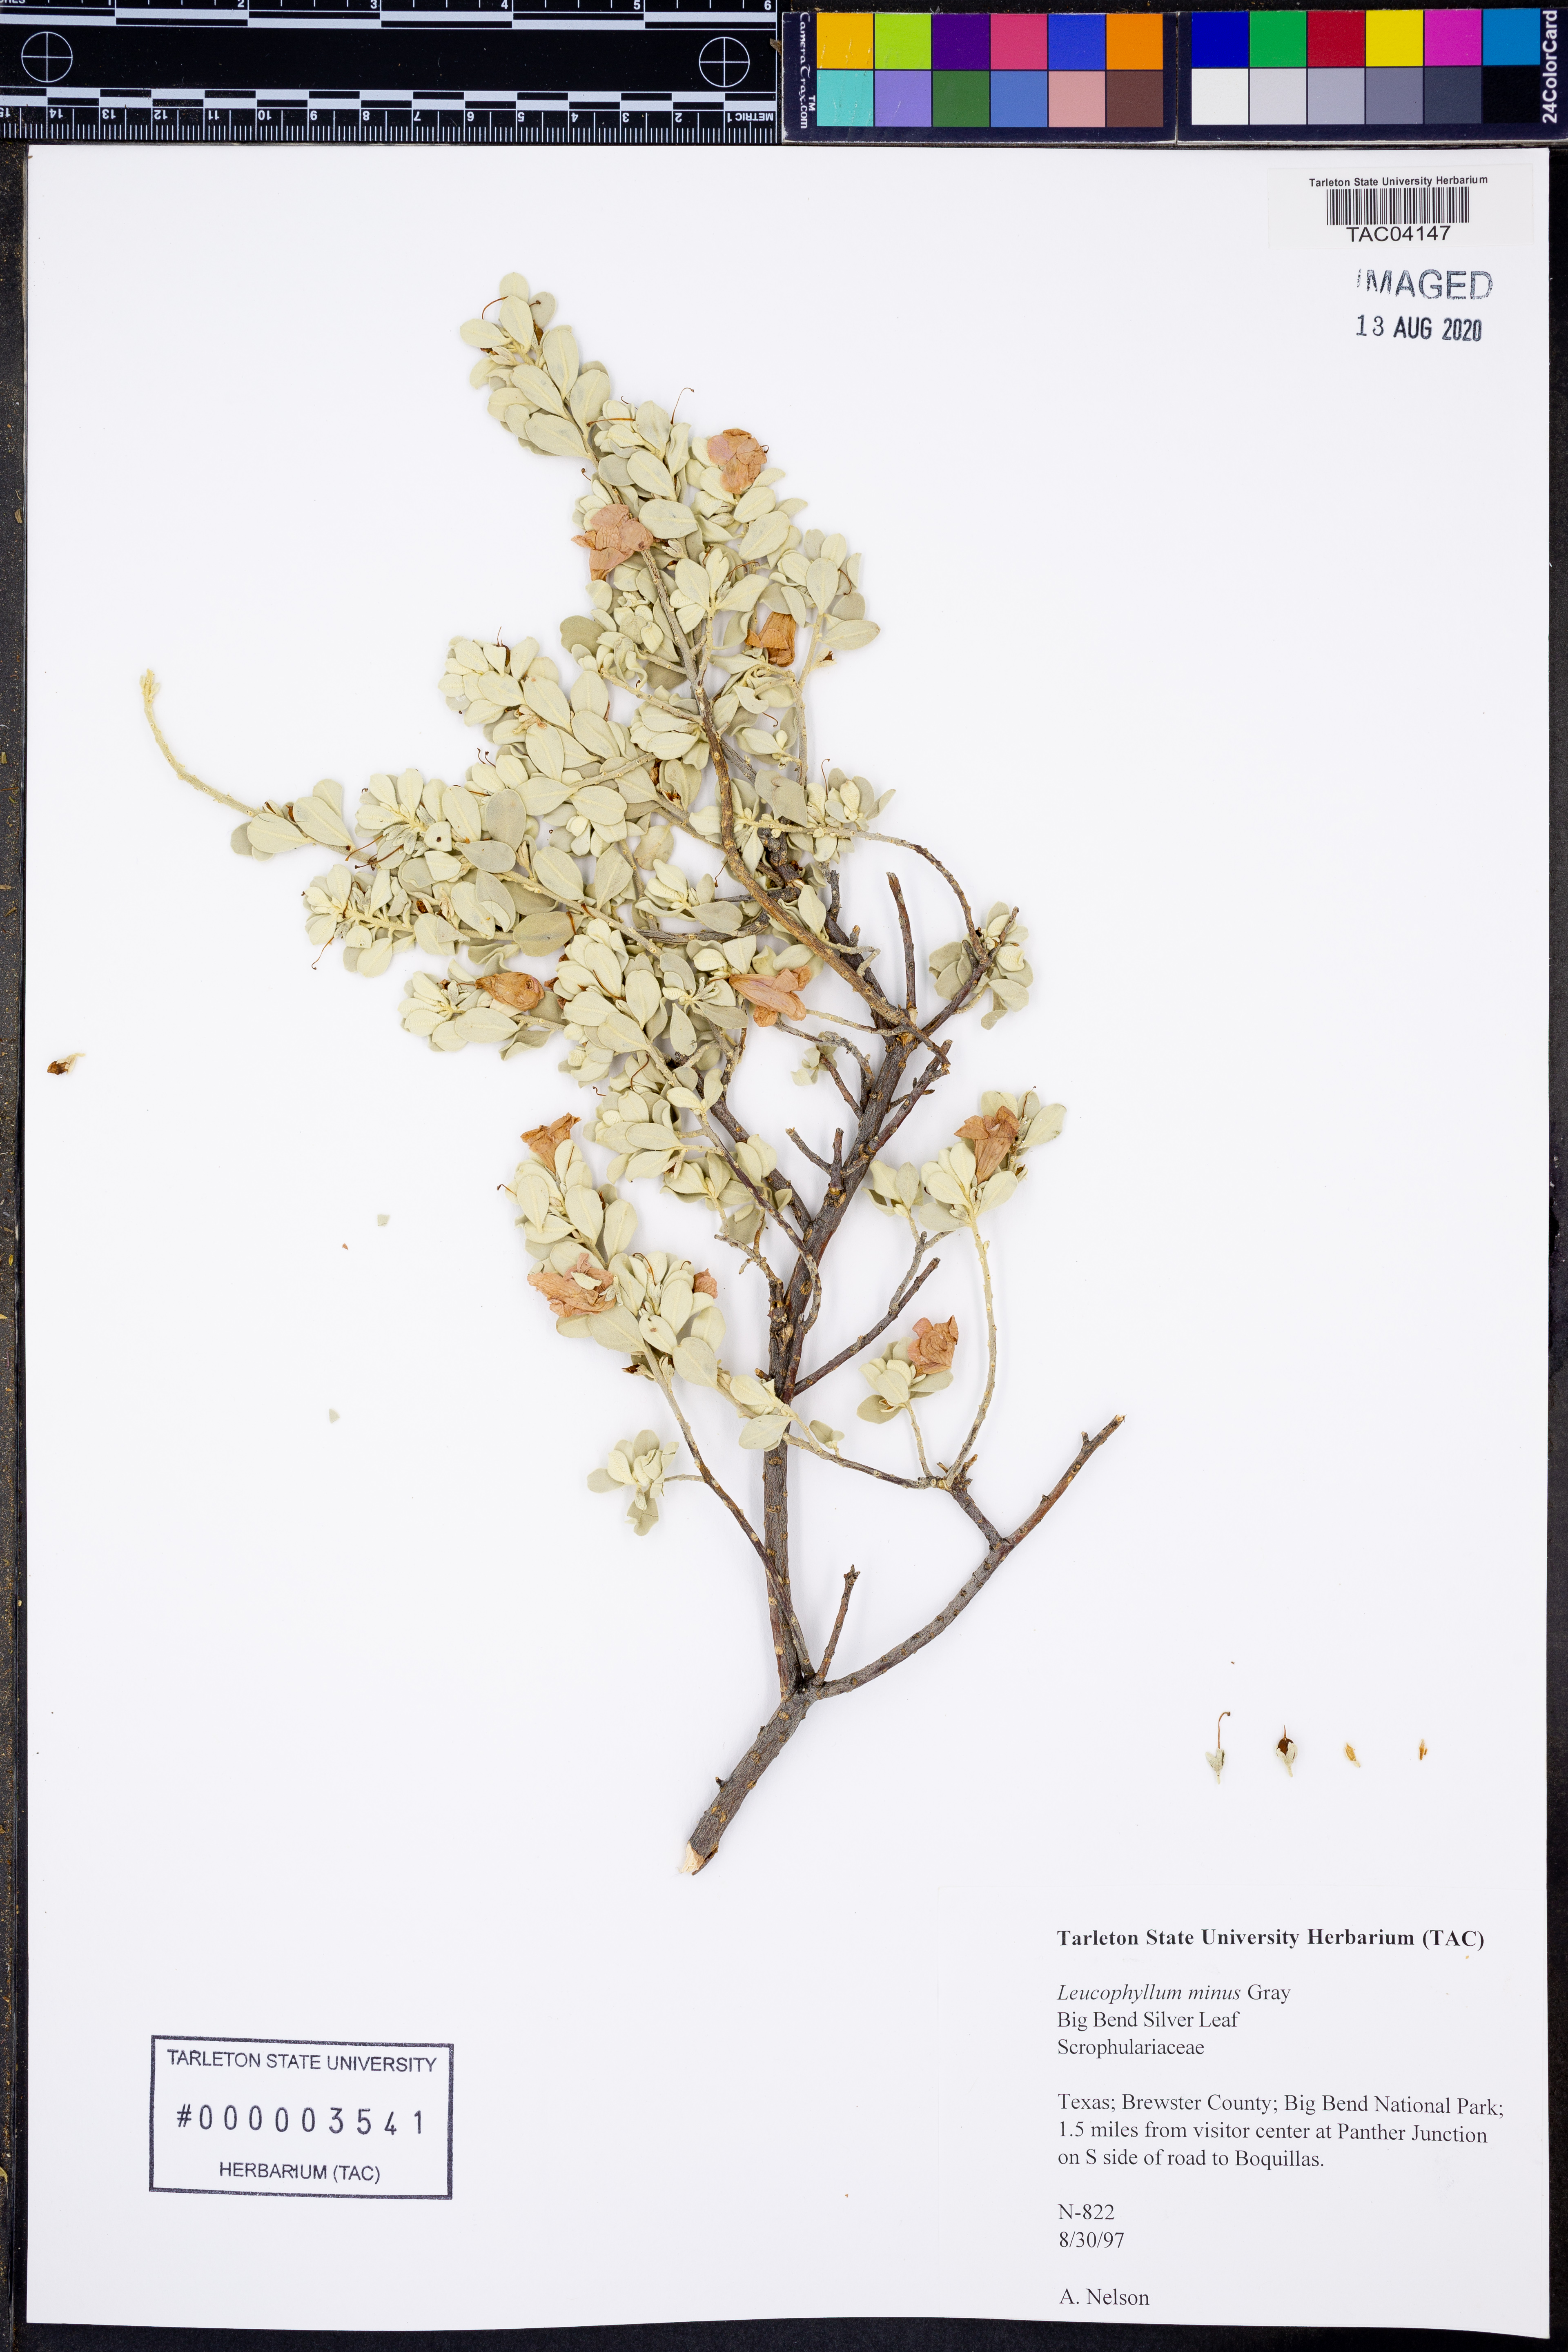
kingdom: Plantae
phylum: Tracheophyta
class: Magnoliopsida
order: Lamiales
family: Scrophulariaceae
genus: Leucophyllum
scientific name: Leucophyllum minus
